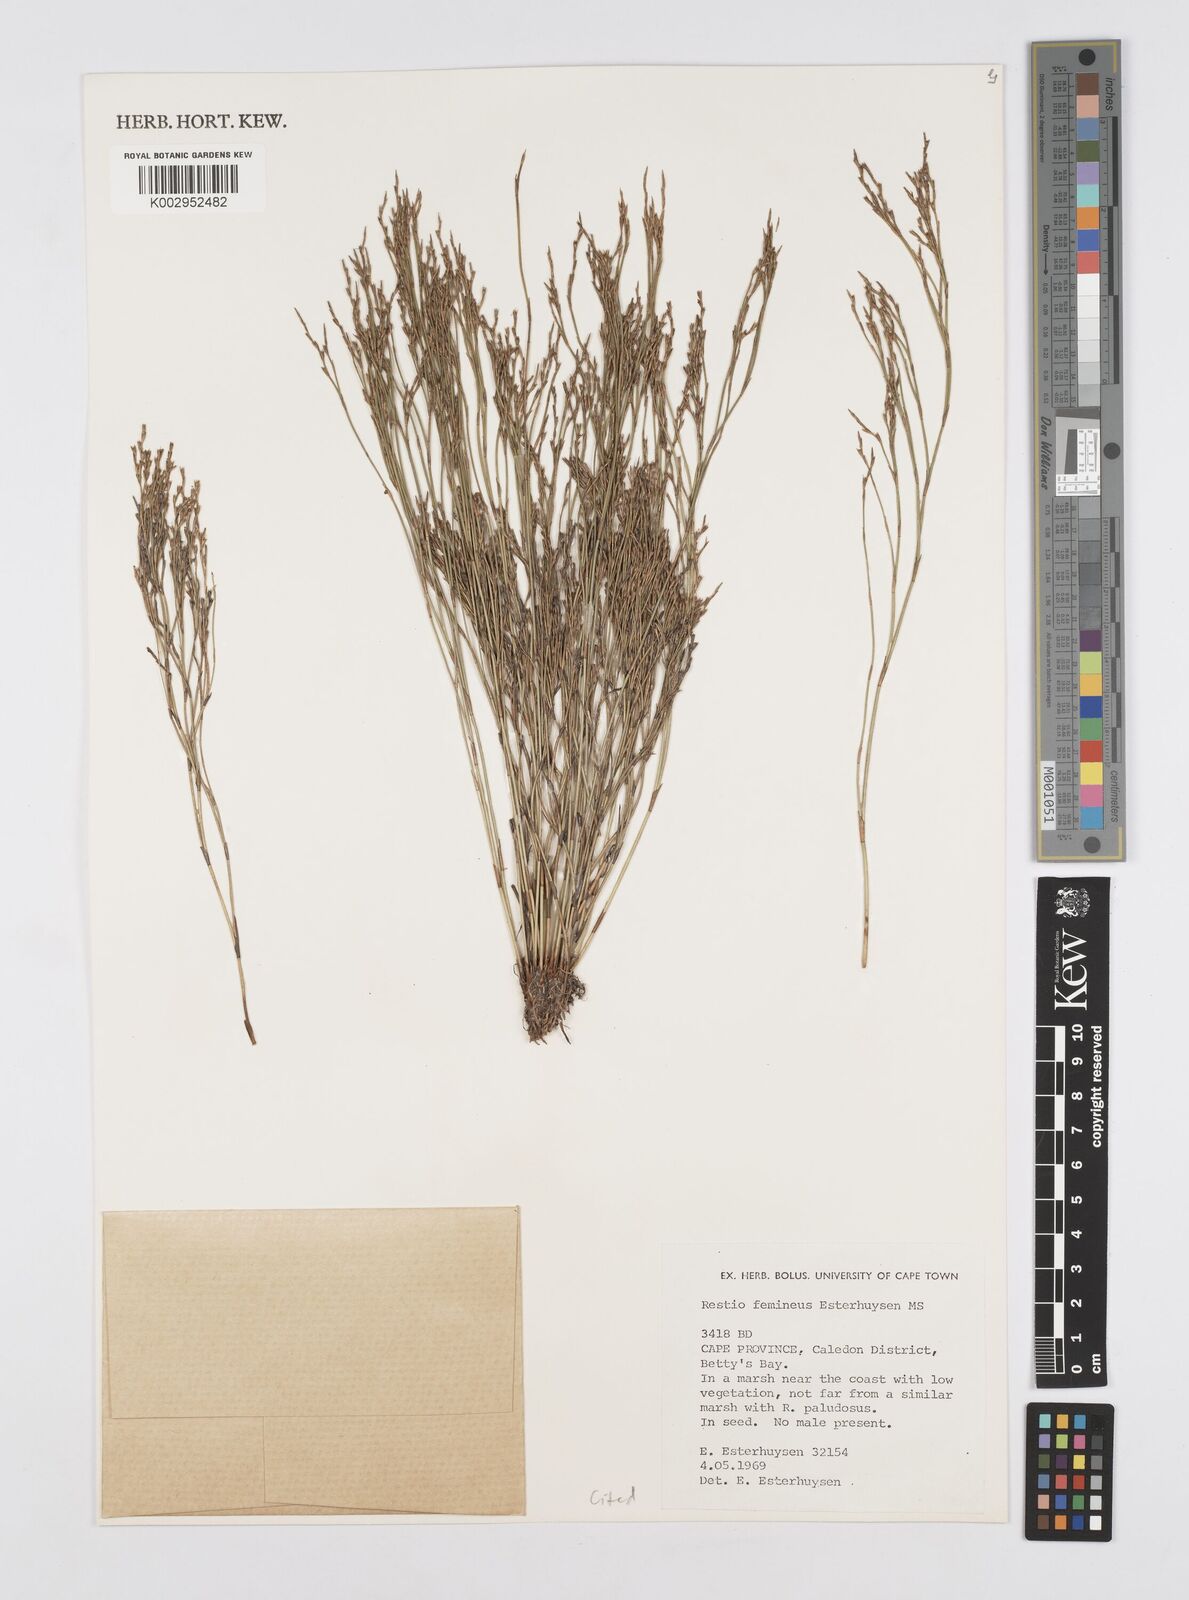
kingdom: Plantae
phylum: Tracheophyta
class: Liliopsida
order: Poales
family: Restionaceae
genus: Restio
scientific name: Restio femineus
